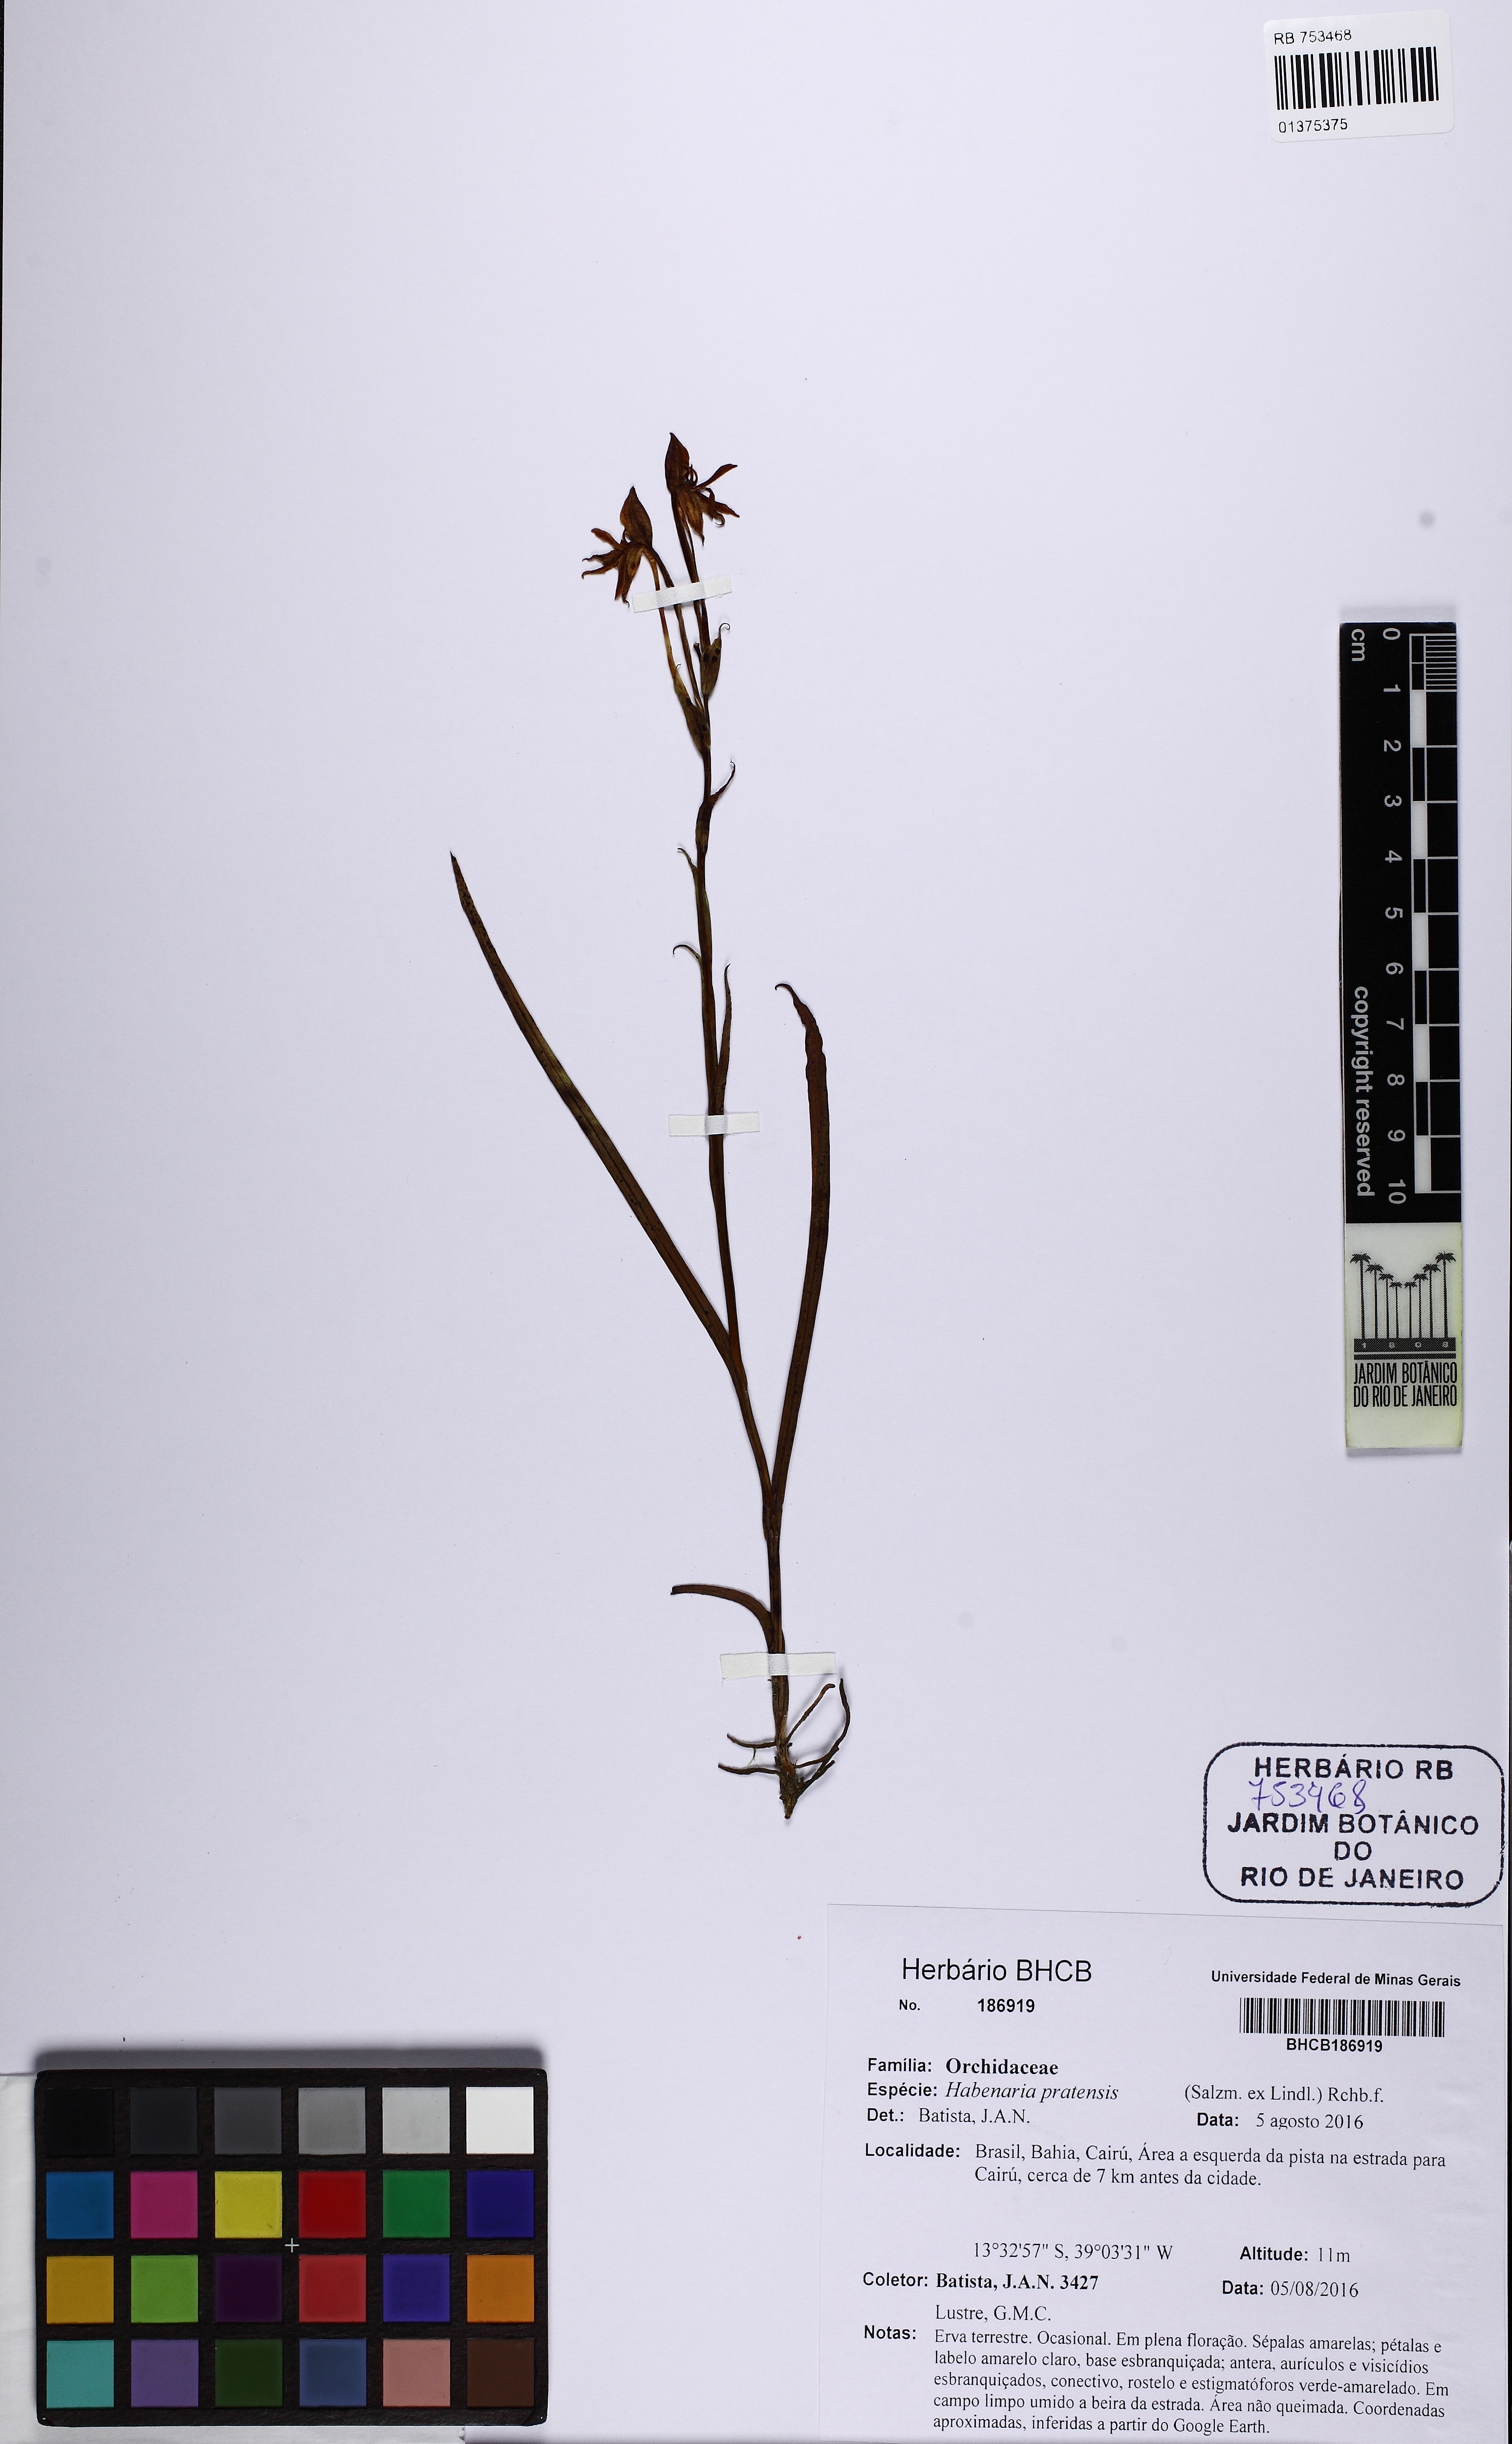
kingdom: Plantae
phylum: Tracheophyta
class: Liliopsida
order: Asparagales
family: Orchidaceae
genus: Habenaria
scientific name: Habenaria pratensis
